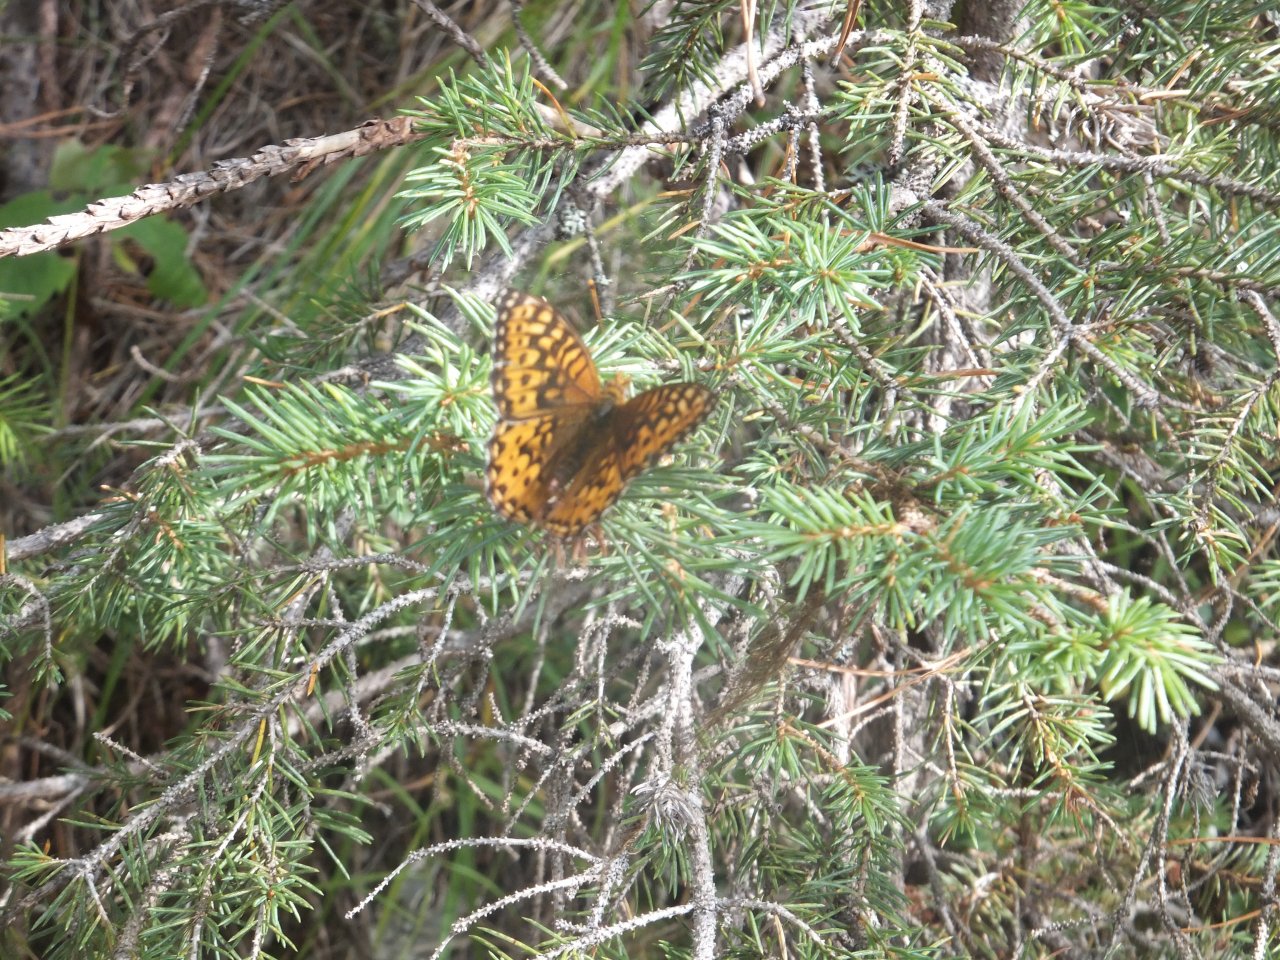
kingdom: Animalia
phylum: Arthropoda
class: Insecta
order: Lepidoptera
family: Nymphalidae
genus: Speyeria
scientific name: Speyeria hydaspe
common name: Hydaspe Fritillary
